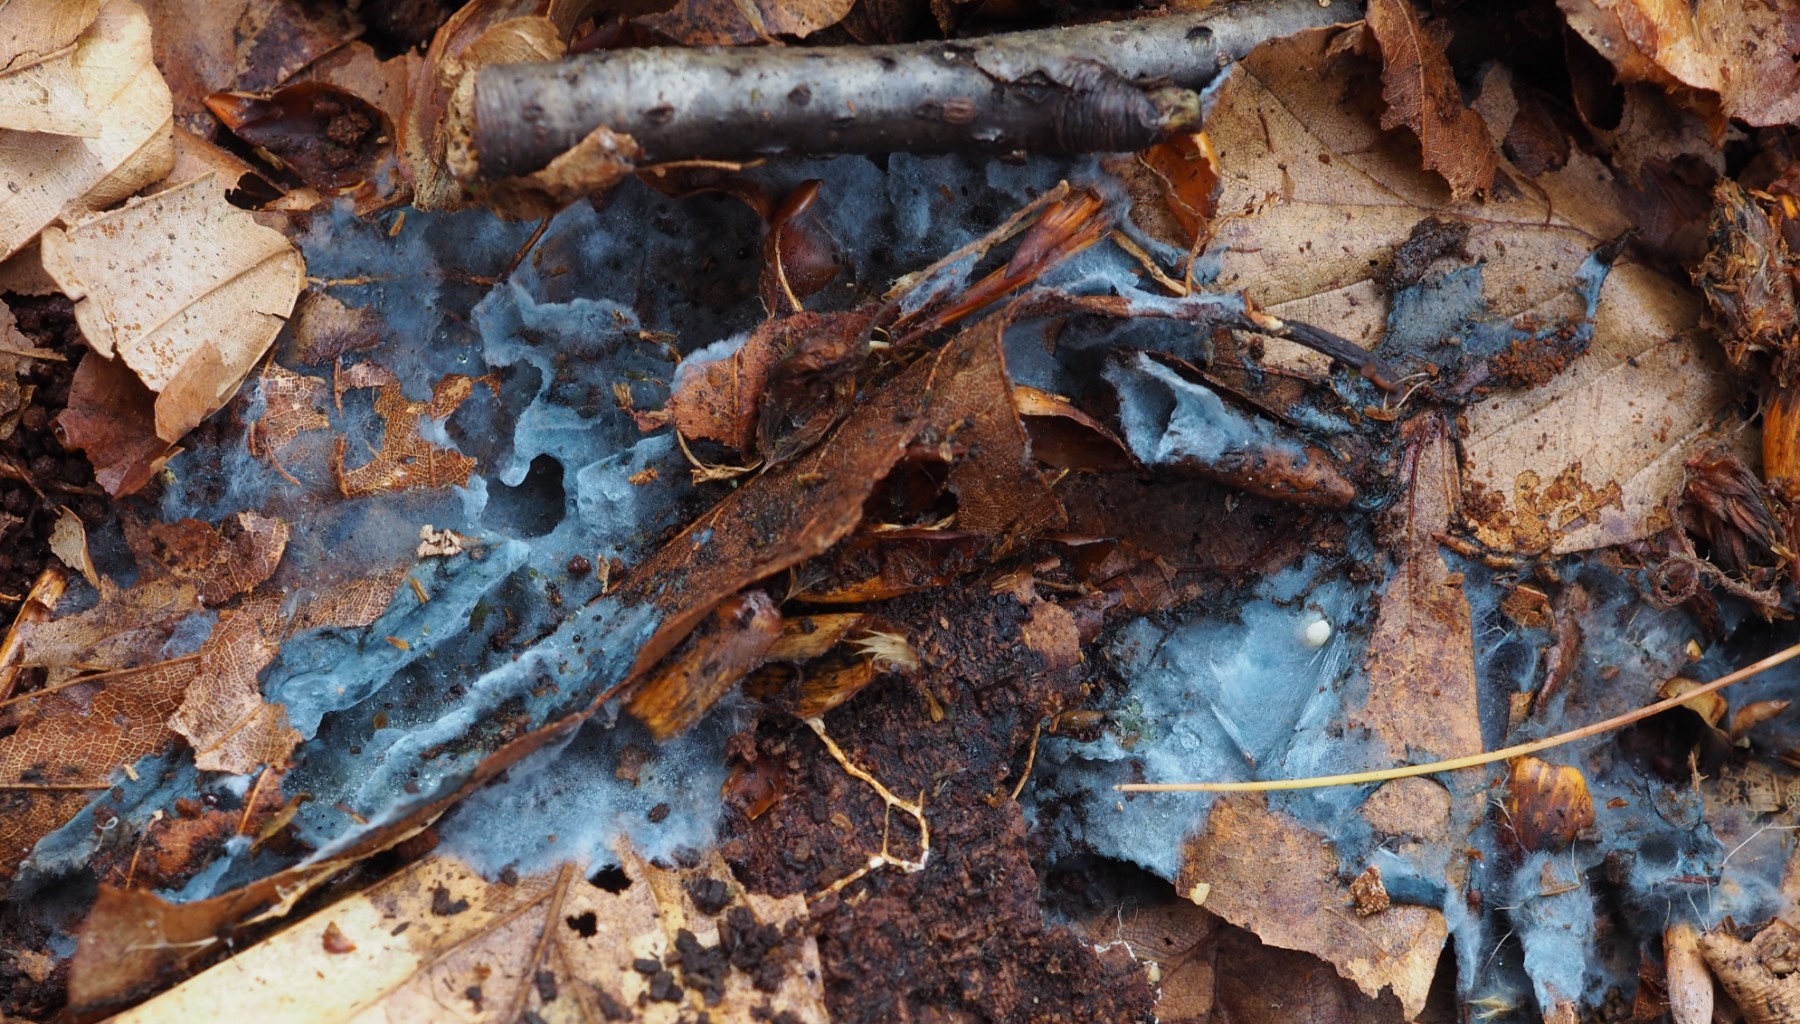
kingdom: Fungi
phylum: Basidiomycota
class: Agaricomycetes
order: Atheliales
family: Atheliaceae
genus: Byssocorticium
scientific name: Byssocorticium atrovirens
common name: blå førnehinde
